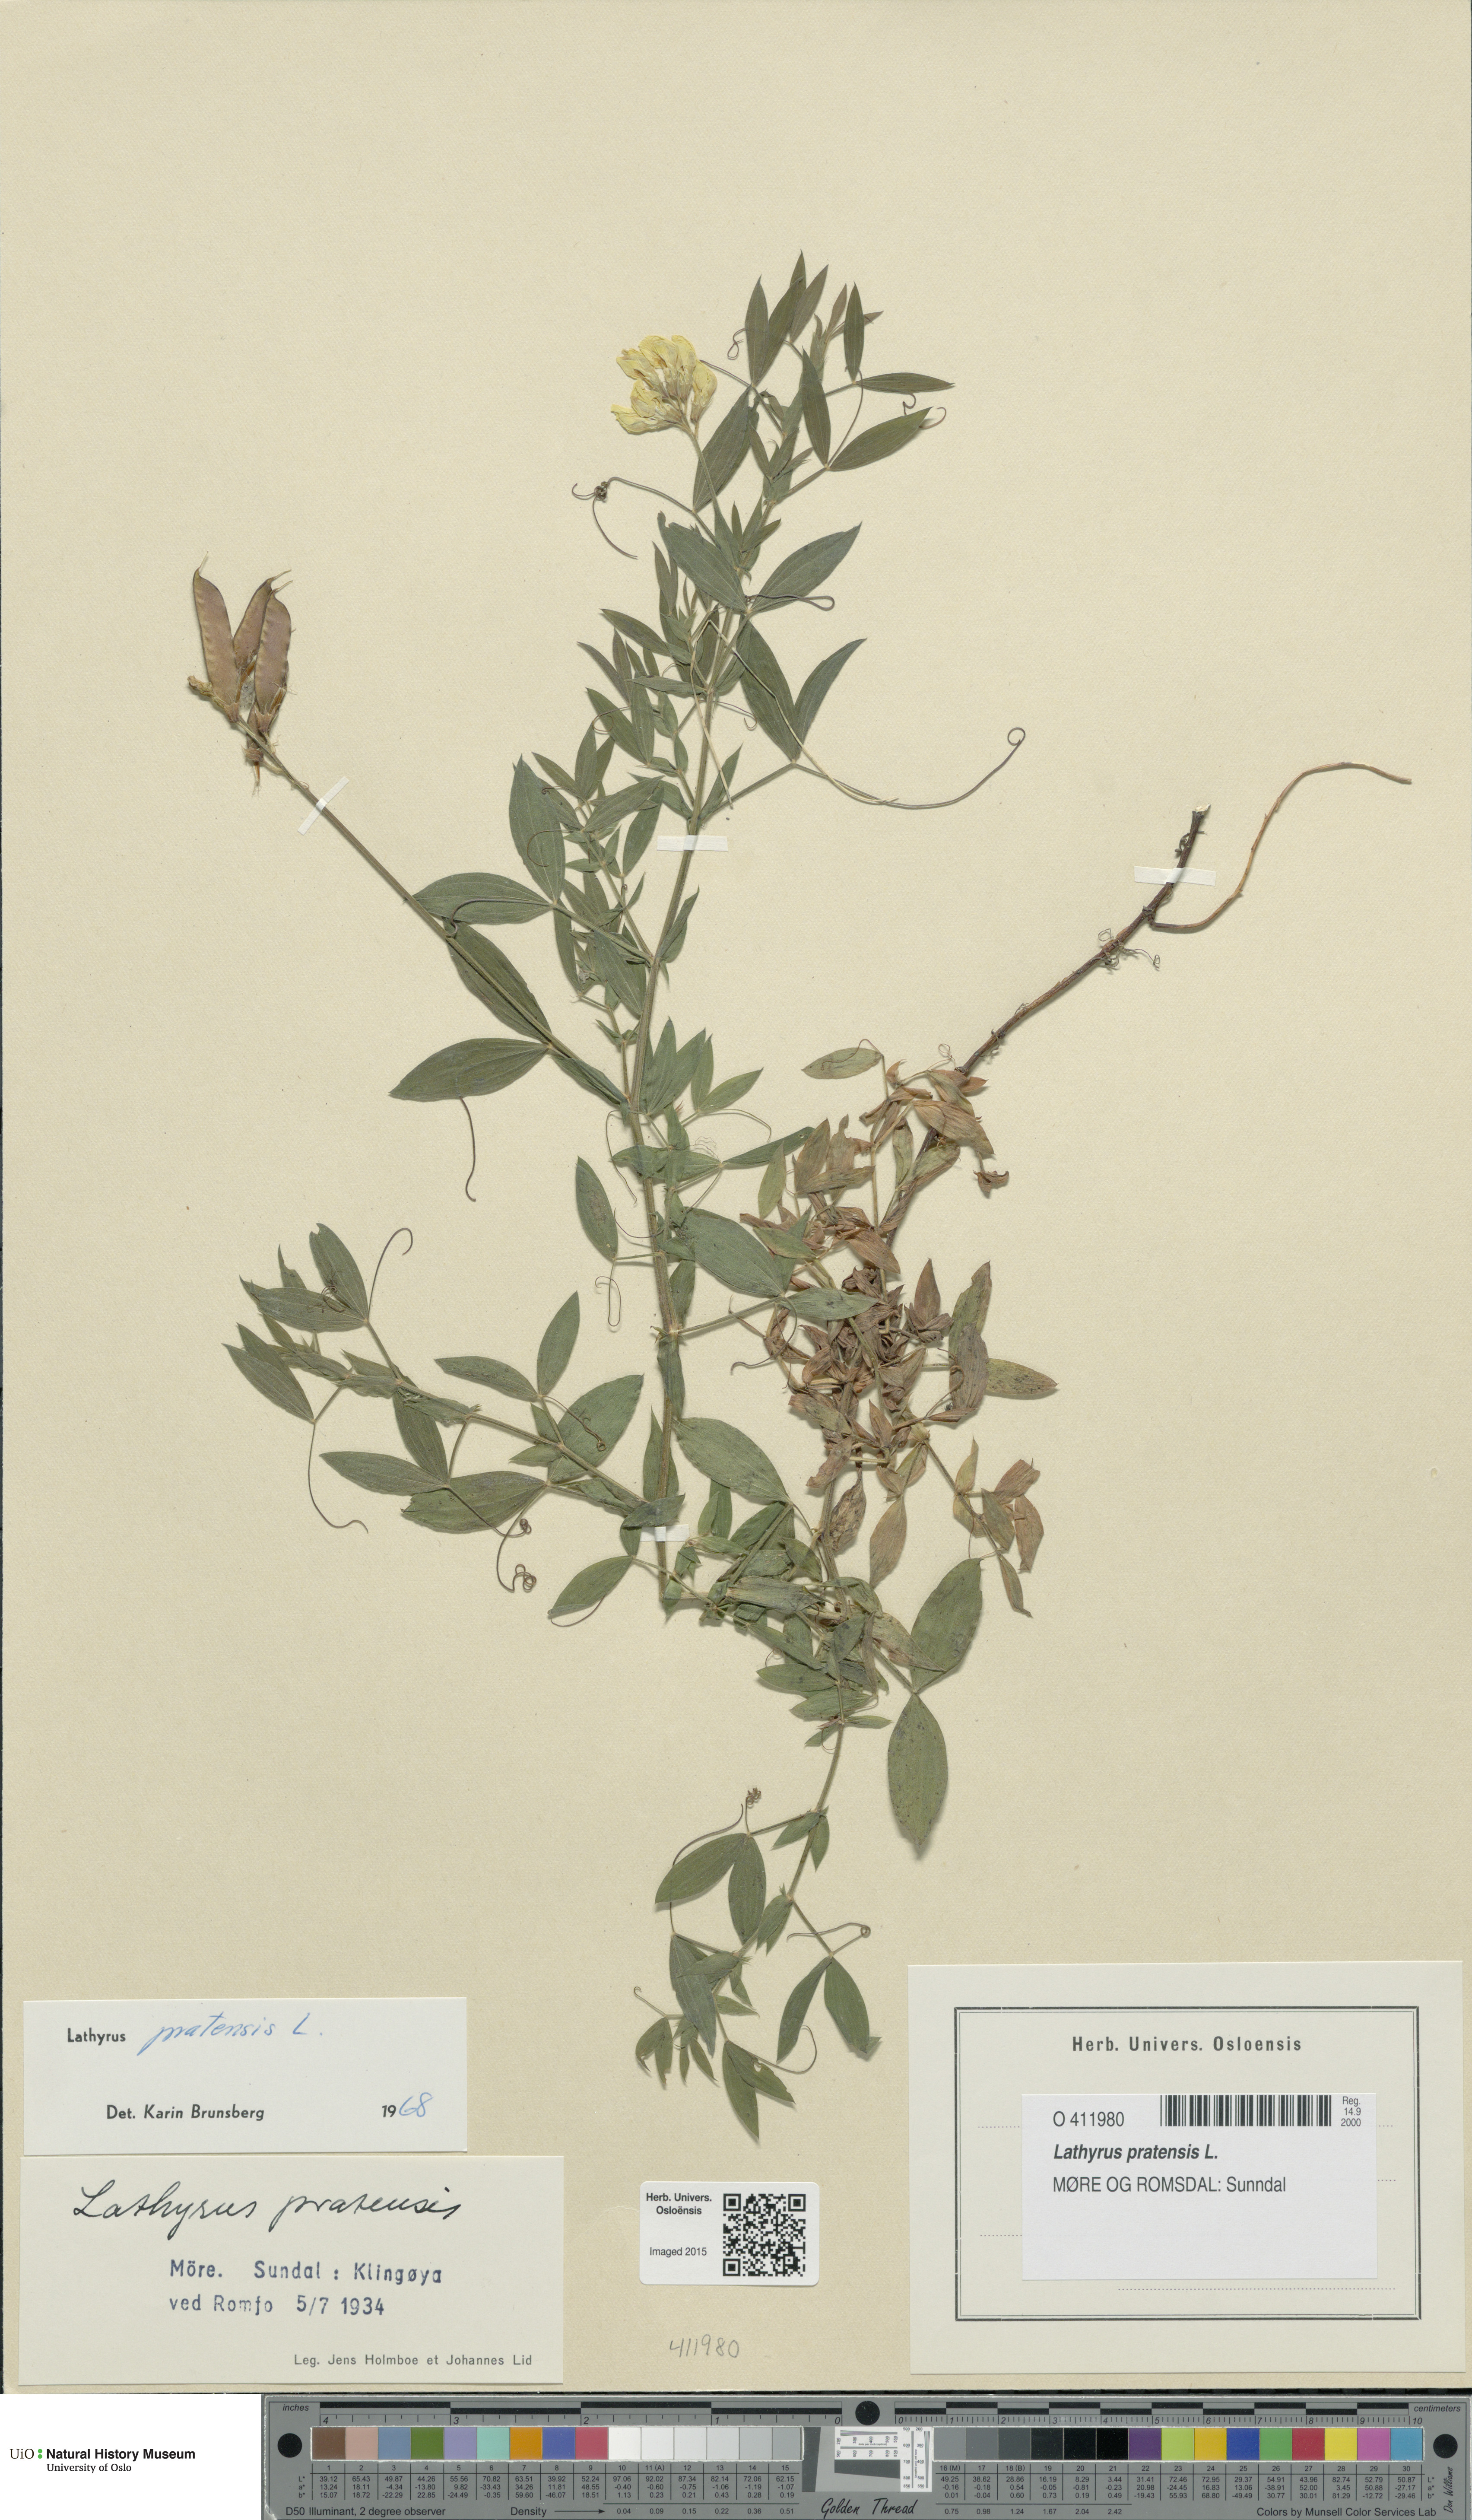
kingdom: Plantae
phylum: Tracheophyta
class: Magnoliopsida
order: Fabales
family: Fabaceae
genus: Lathyrus
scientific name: Lathyrus pratensis
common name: Meadow vetchling
